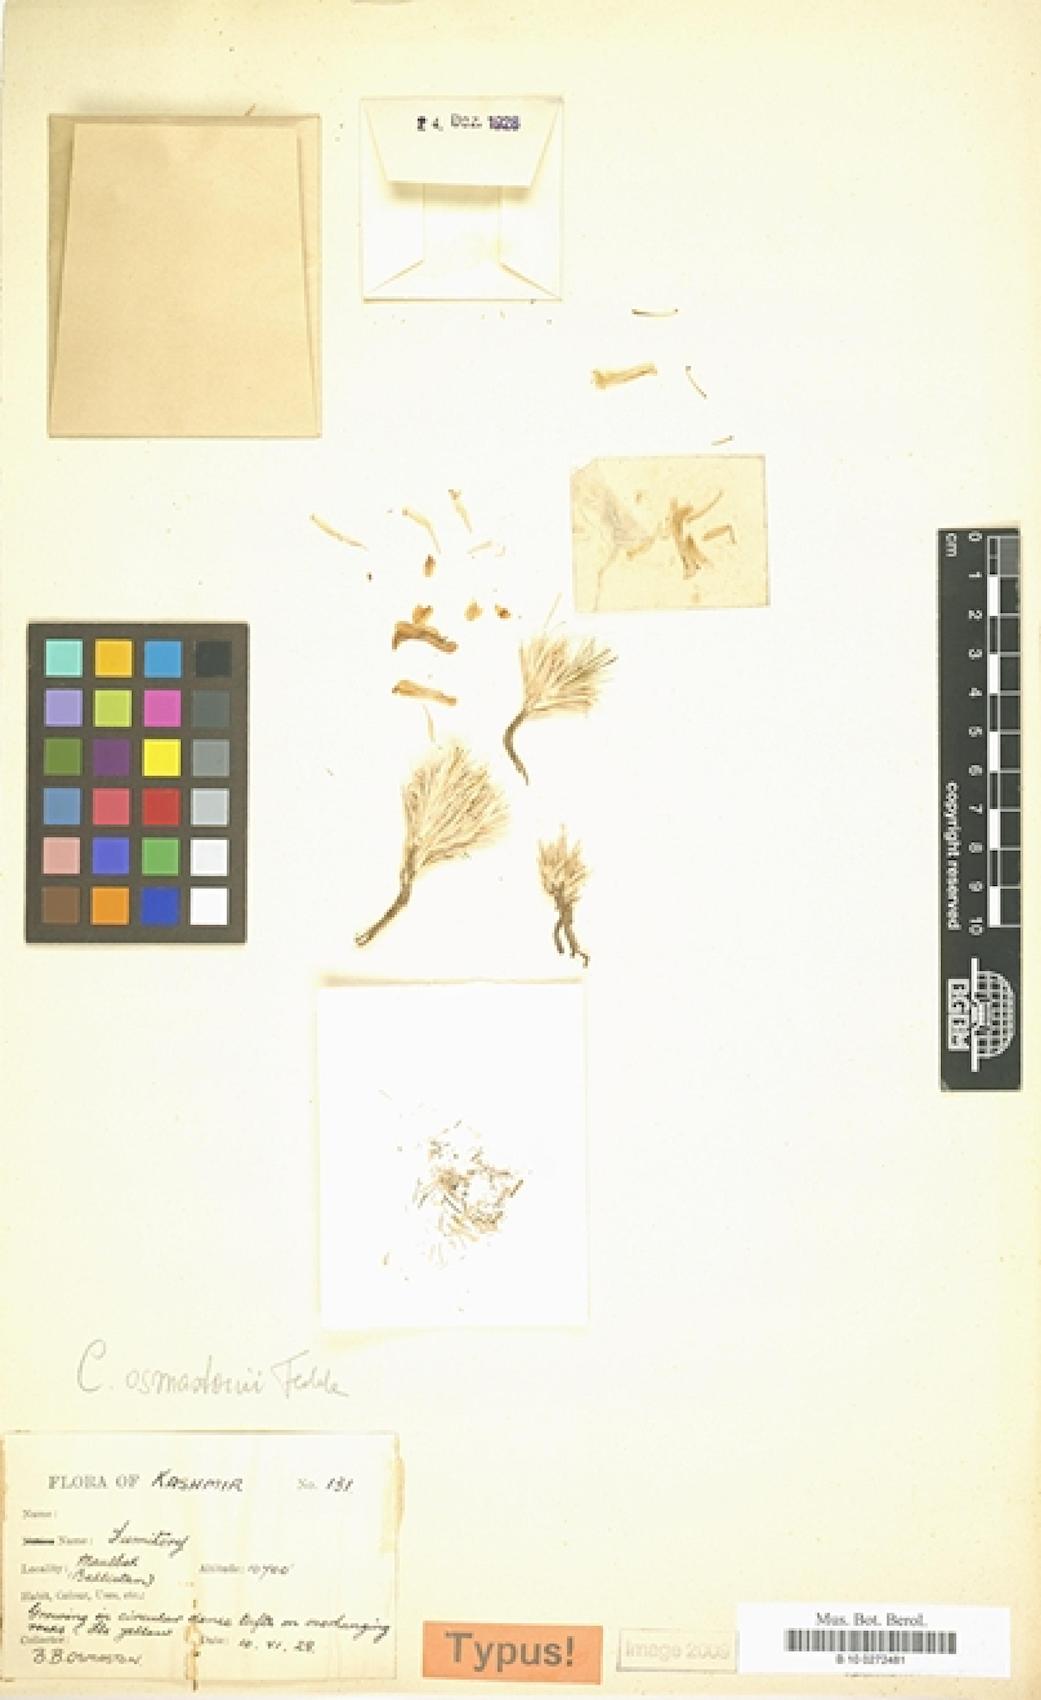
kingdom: Plantae
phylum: Tracheophyta
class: Magnoliopsida
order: Ranunculales
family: Papaveraceae
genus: Corydalis
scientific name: Corydalis mira
